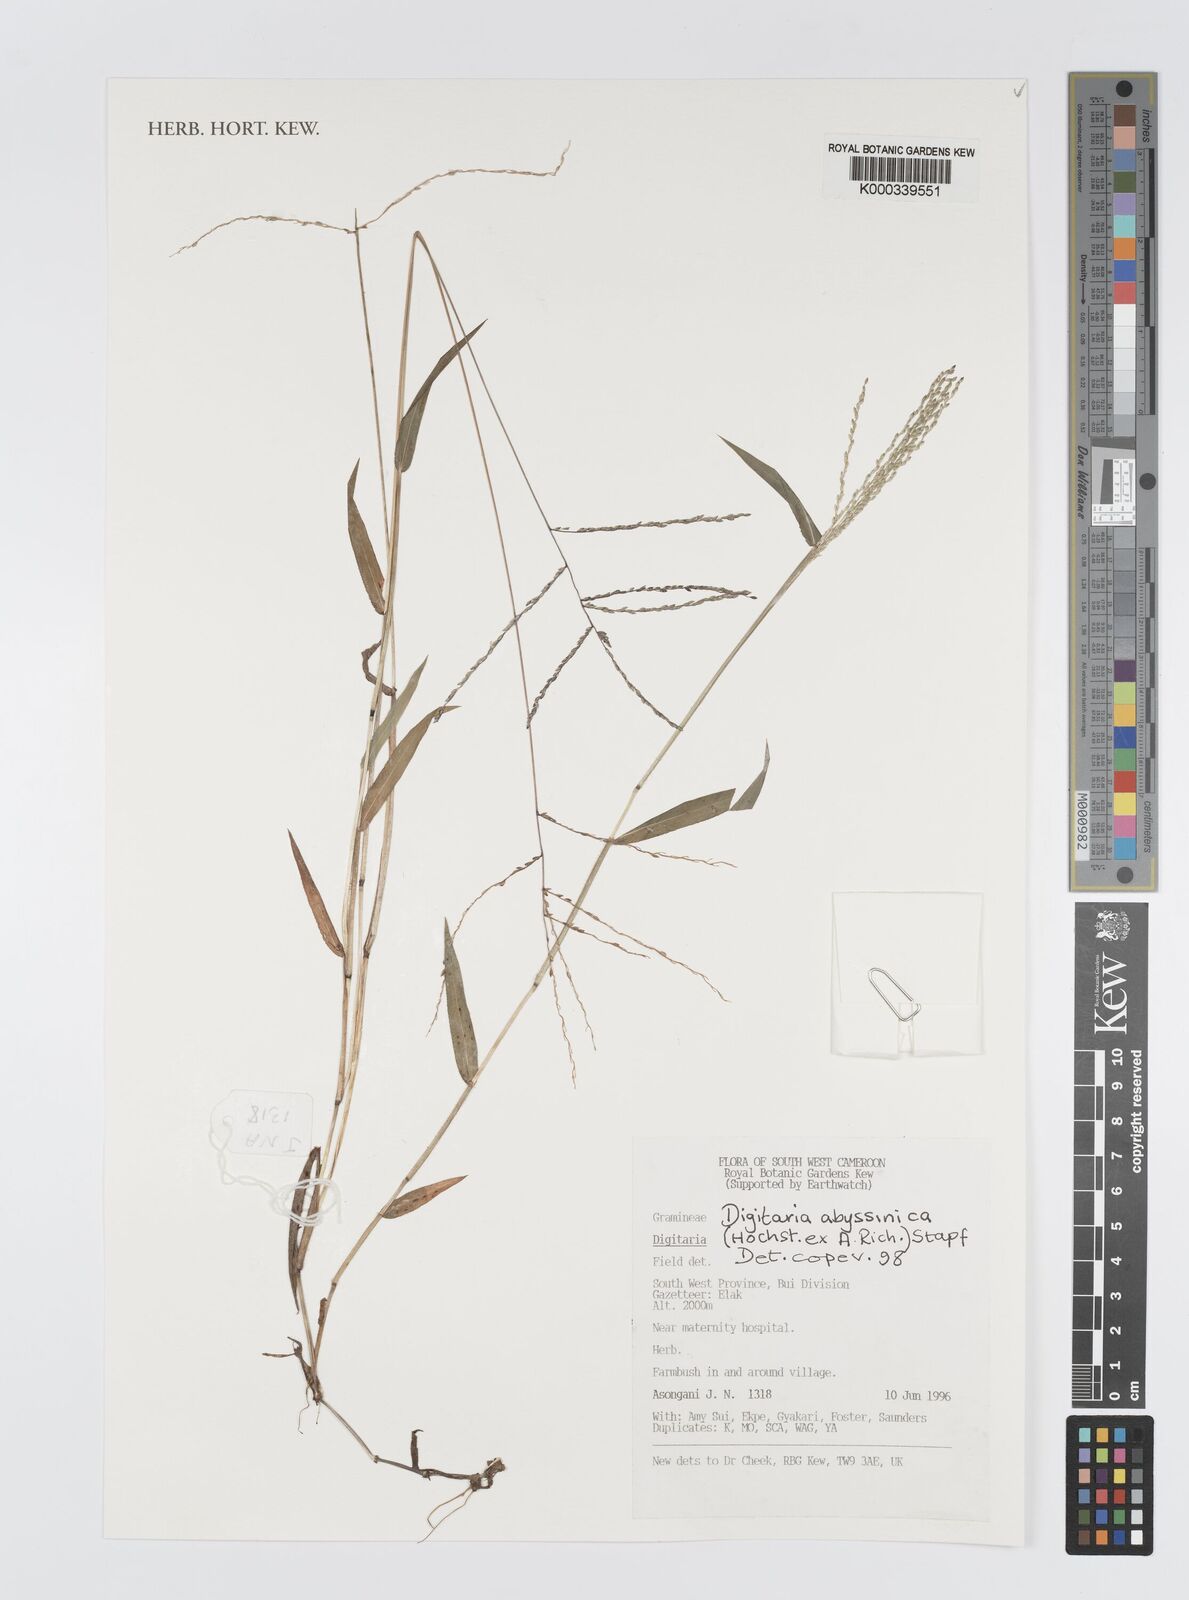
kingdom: Plantae
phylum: Tracheophyta
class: Liliopsida
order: Poales
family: Poaceae
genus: Digitaria
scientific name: Digitaria abyssinica
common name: African couchgrass
